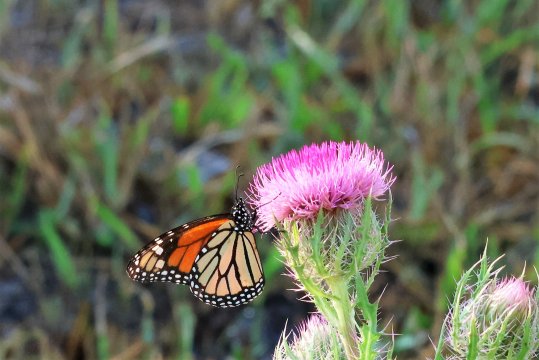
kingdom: Animalia
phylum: Arthropoda
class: Insecta
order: Lepidoptera
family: Nymphalidae
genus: Danaus
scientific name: Danaus plexippus
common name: Monarch
